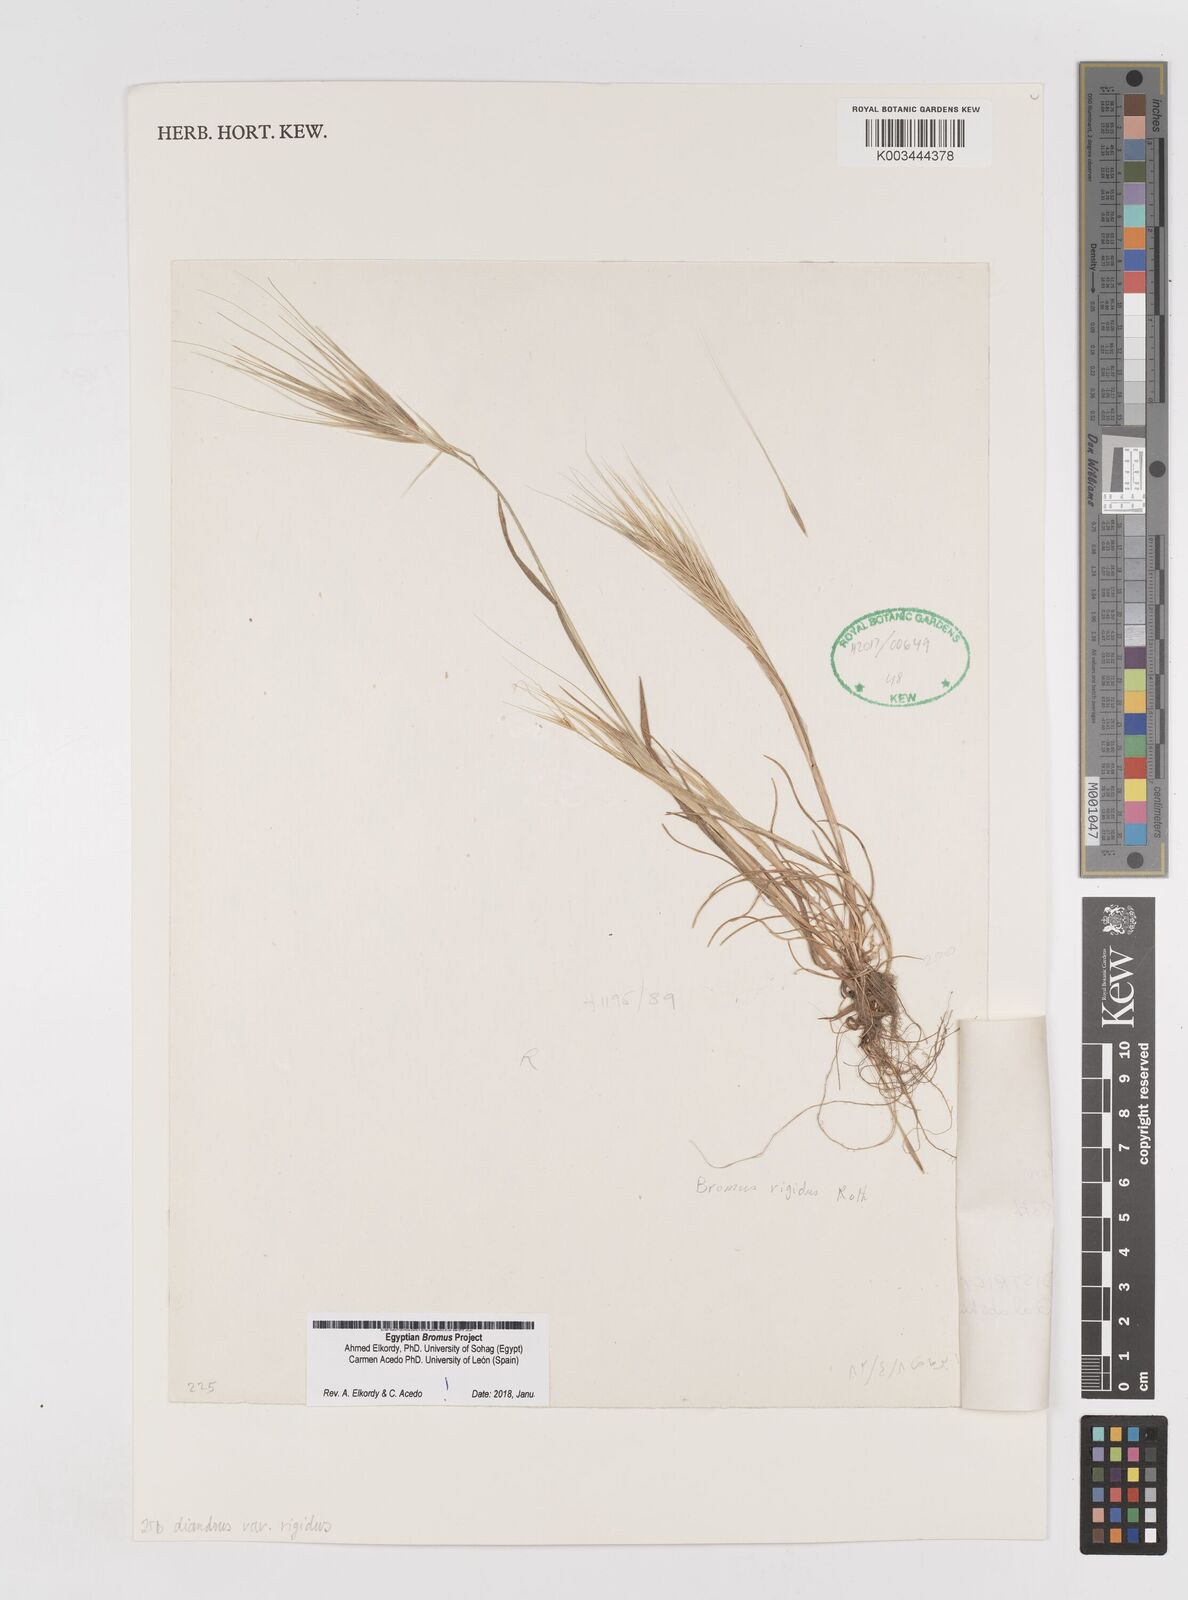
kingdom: Plantae
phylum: Tracheophyta
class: Liliopsida
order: Poales
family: Poaceae
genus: Bromus
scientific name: Bromus
